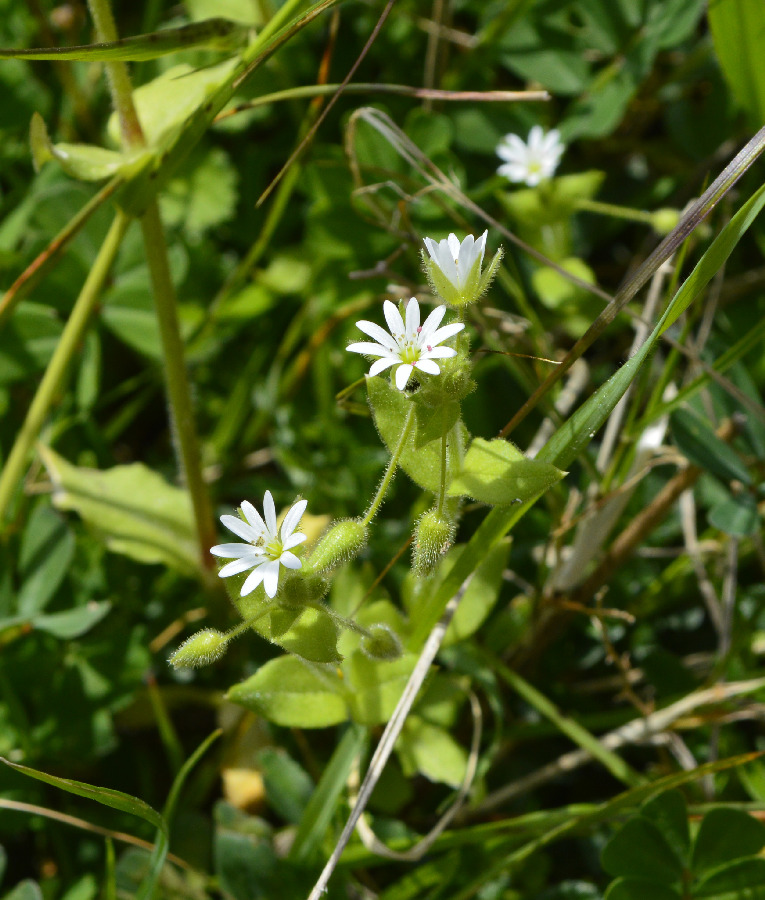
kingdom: Plantae
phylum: Tracheophyta
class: Magnoliopsida
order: Caryophyllales
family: Caryophyllaceae
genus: Stellaria
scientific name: Stellaria cupaniana
